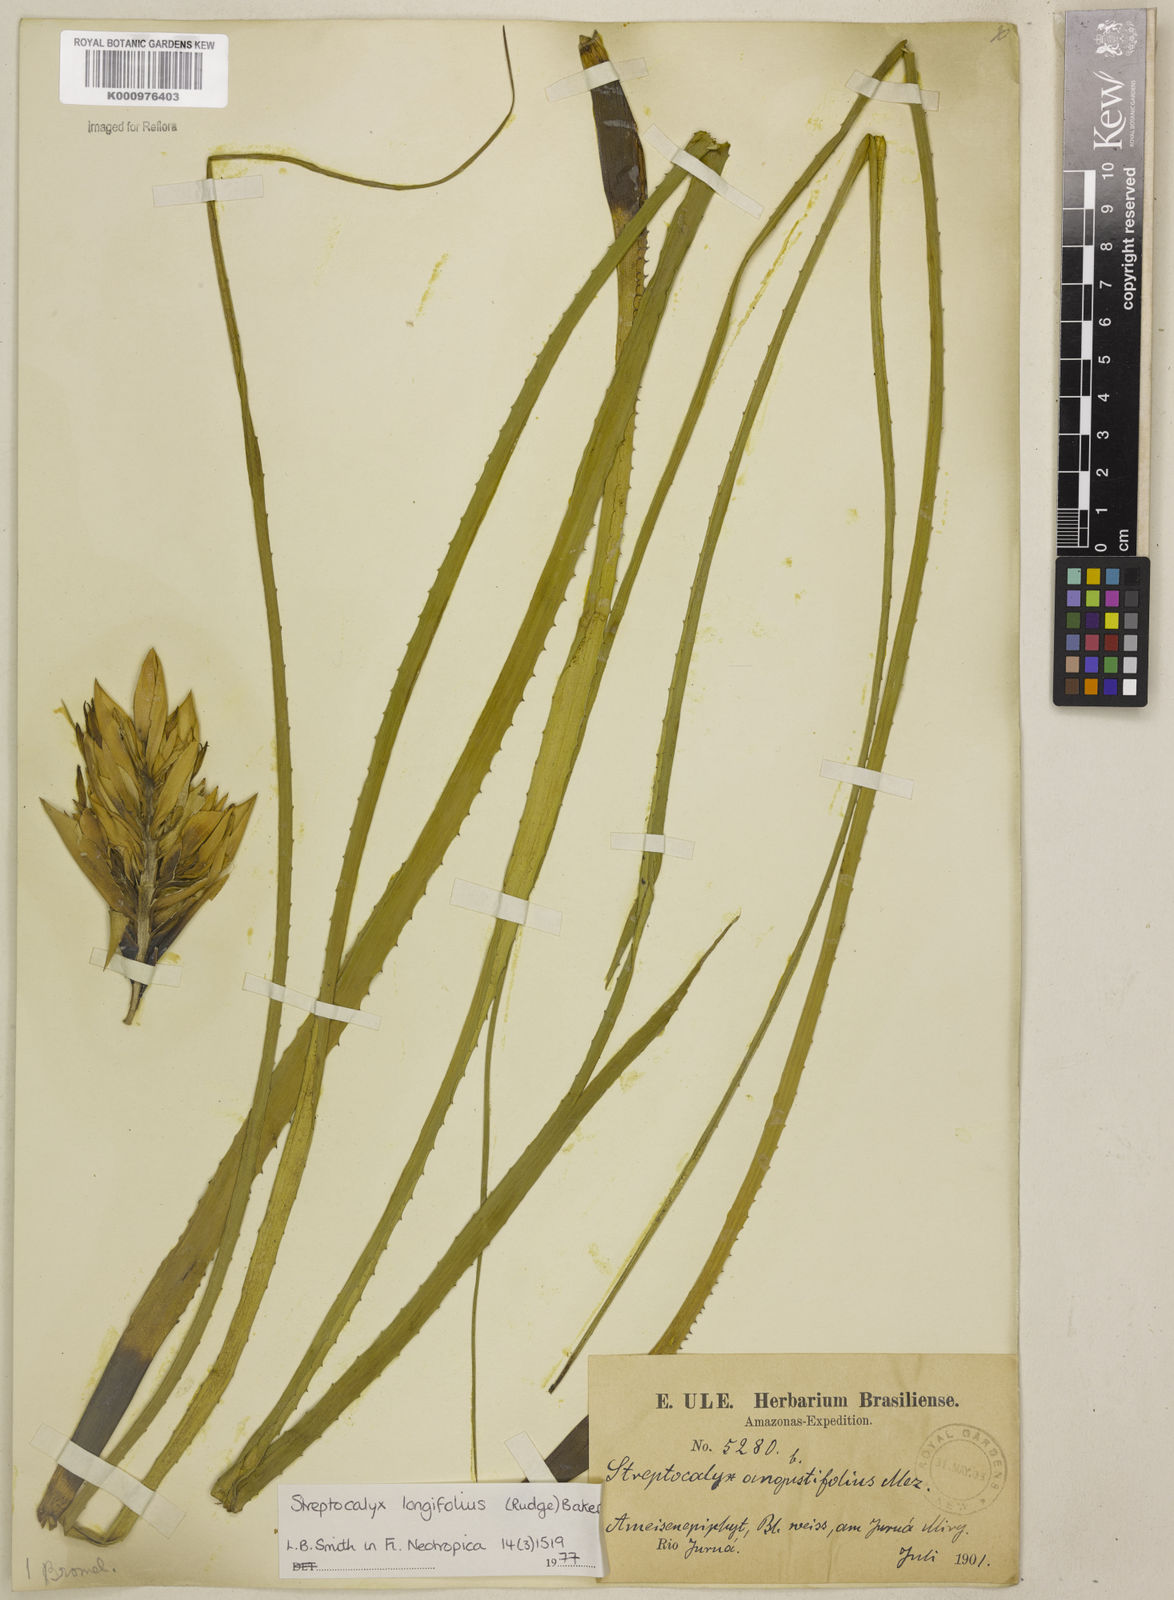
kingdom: Plantae
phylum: Tracheophyta
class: Liliopsida
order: Poales
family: Bromeliaceae
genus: Aechmea
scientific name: Aechmea longifolia
